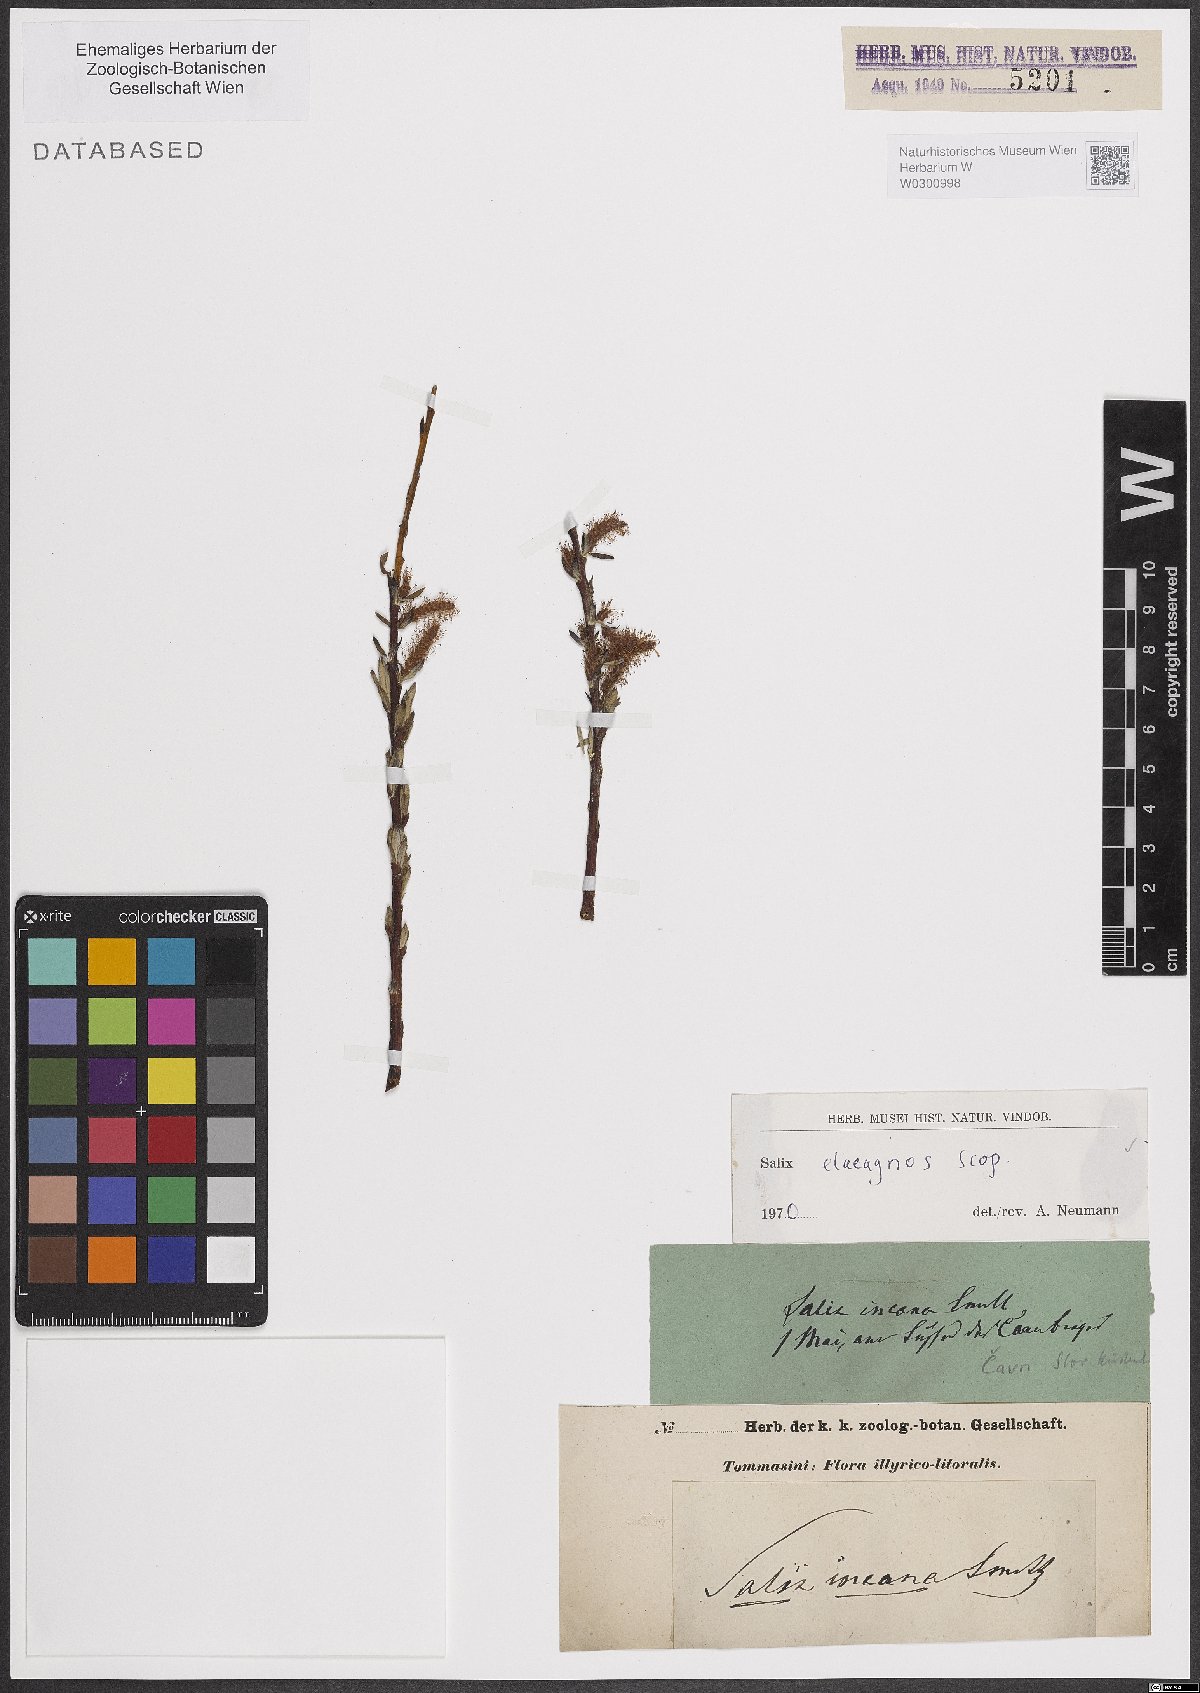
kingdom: Plantae
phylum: Tracheophyta
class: Magnoliopsida
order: Malpighiales
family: Salicaceae
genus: Salix
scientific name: Salix eleagnos
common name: Elaeagnus willow
